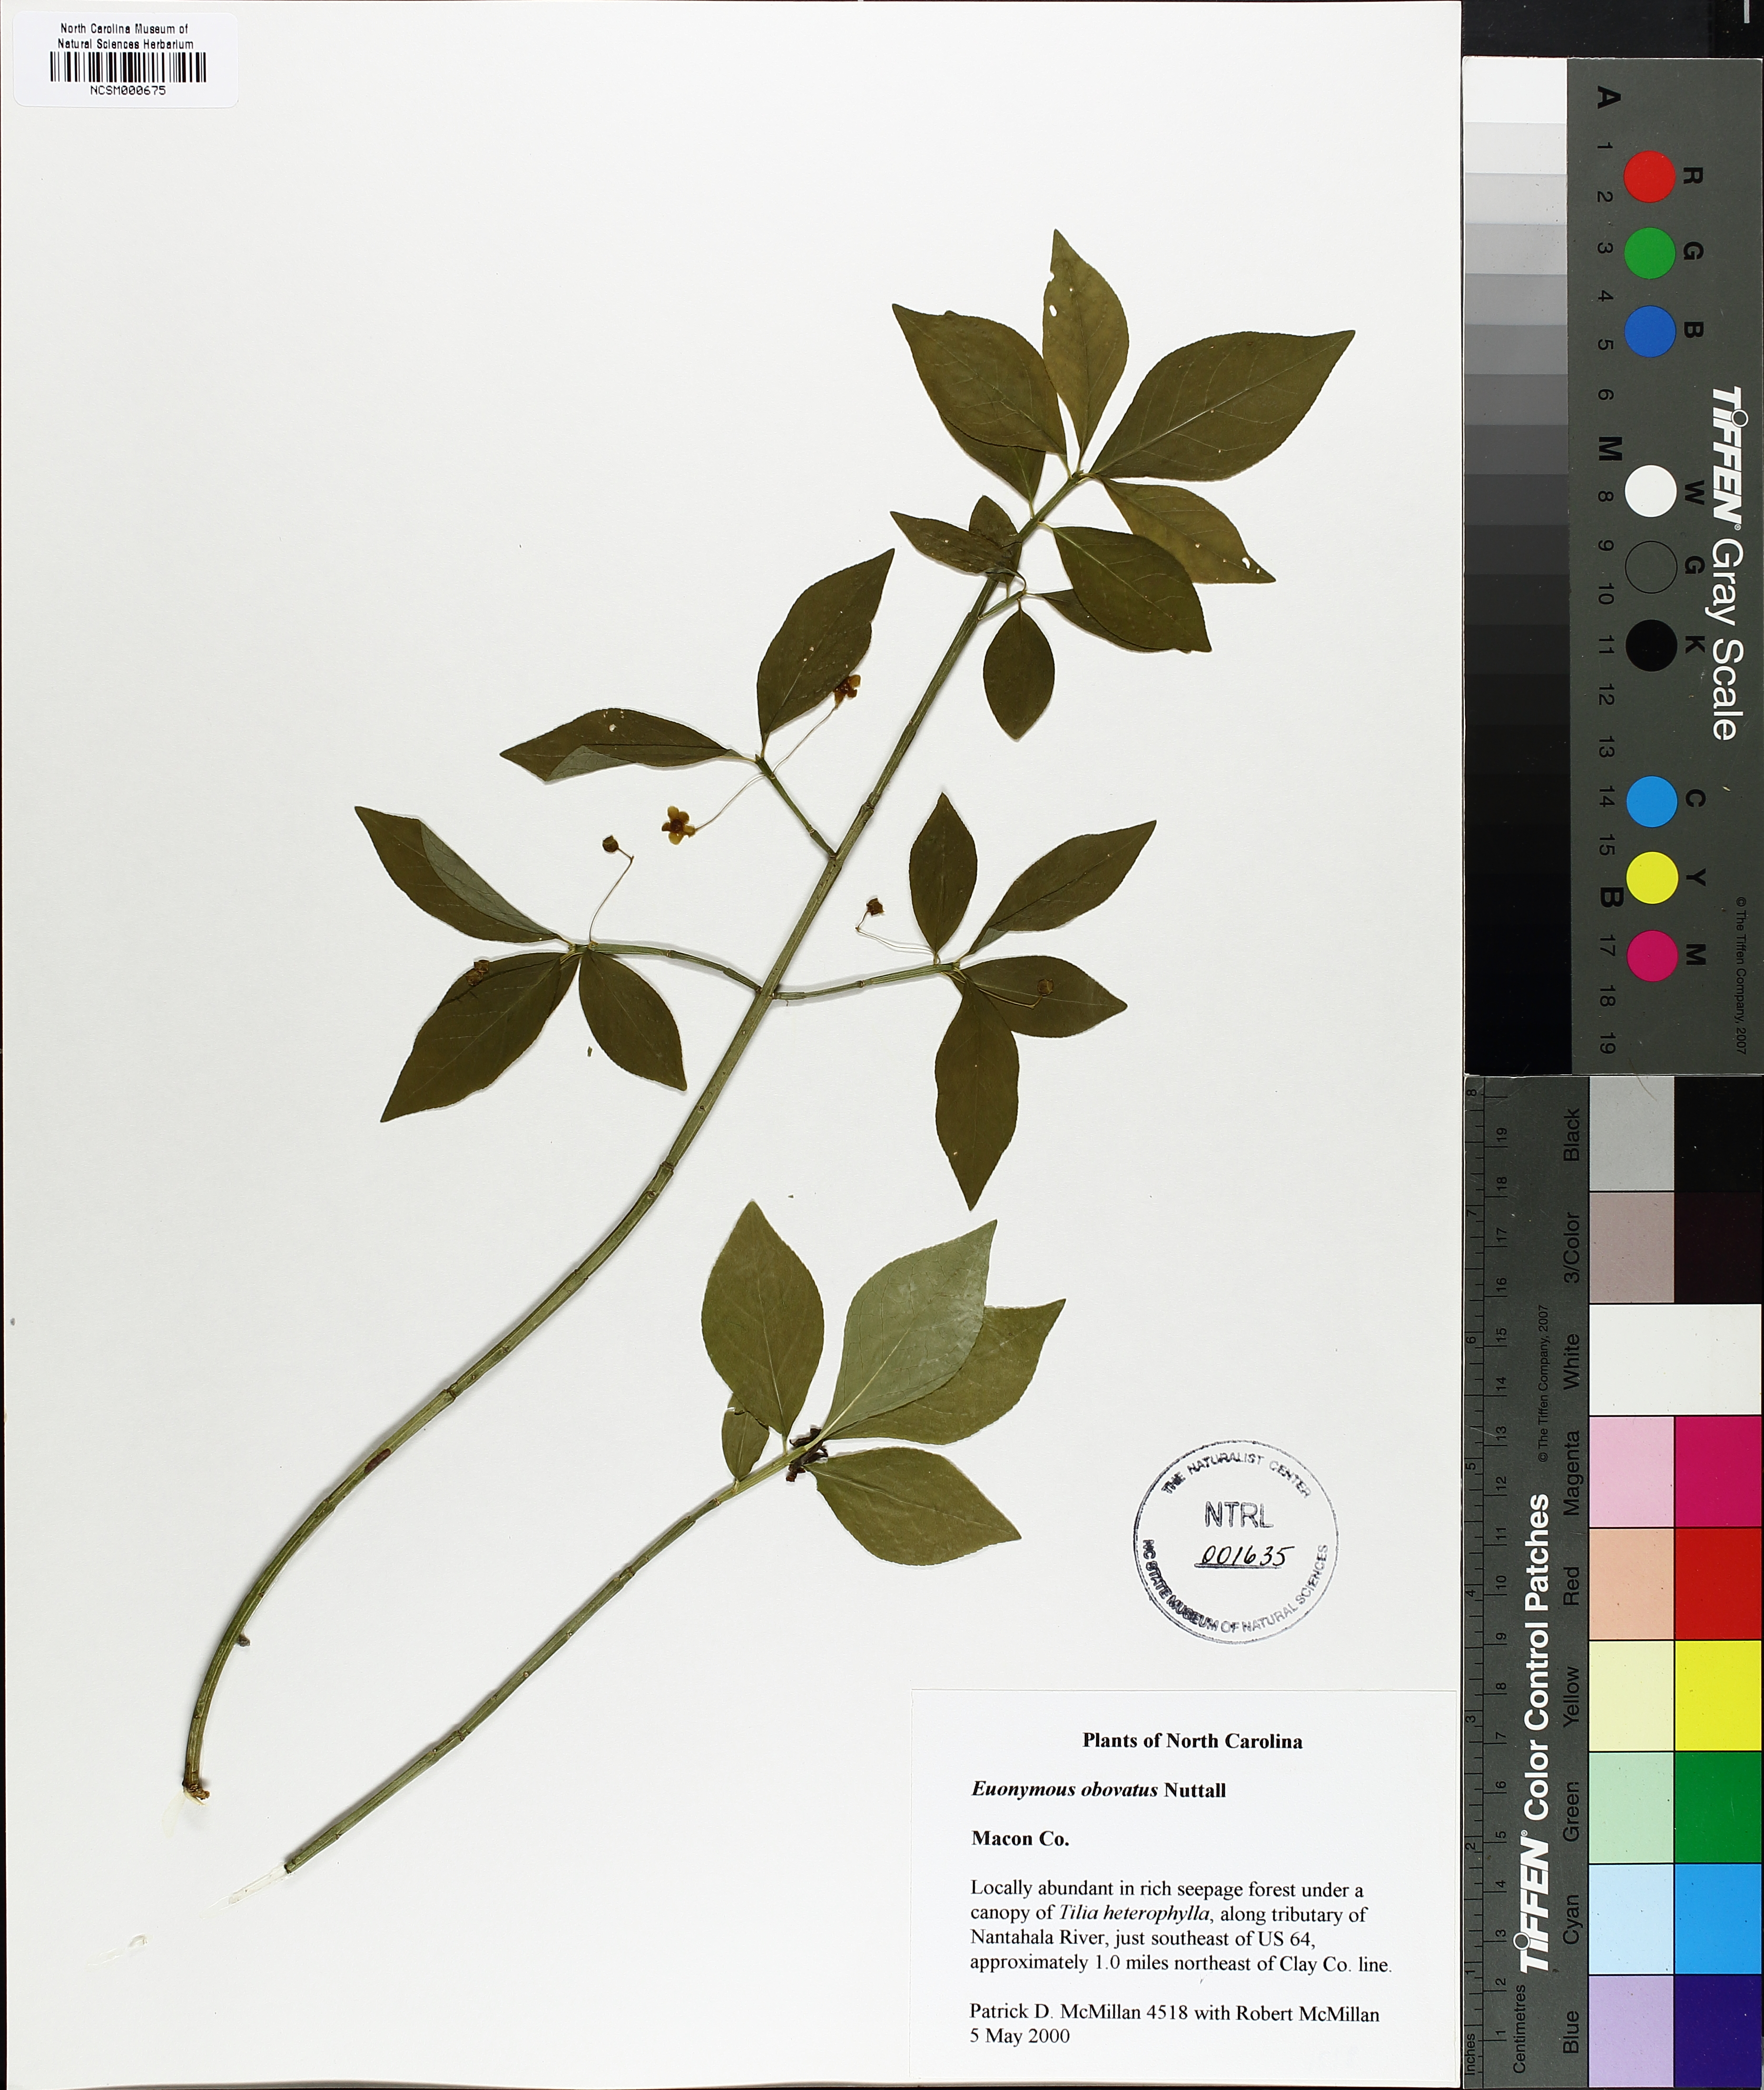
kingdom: Plantae
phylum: Tracheophyta
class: Magnoliopsida
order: Celastrales
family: Celastraceae
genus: Euonymus
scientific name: Euonymus obovatus
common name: Running strawberry-bush
